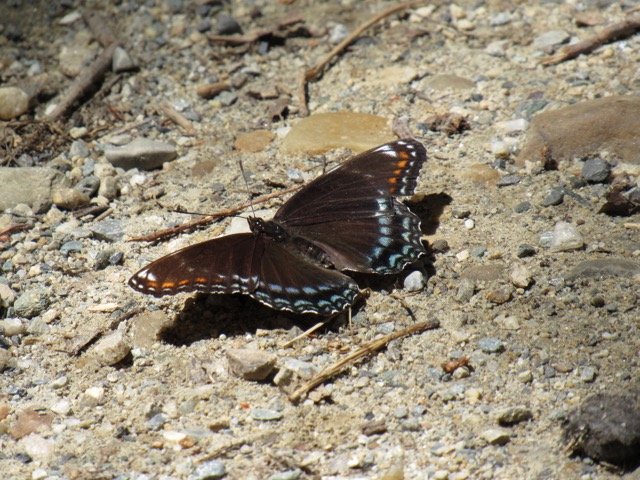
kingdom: Animalia
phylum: Arthropoda
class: Insecta
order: Lepidoptera
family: Nymphalidae
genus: Limenitis
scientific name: Limenitis
